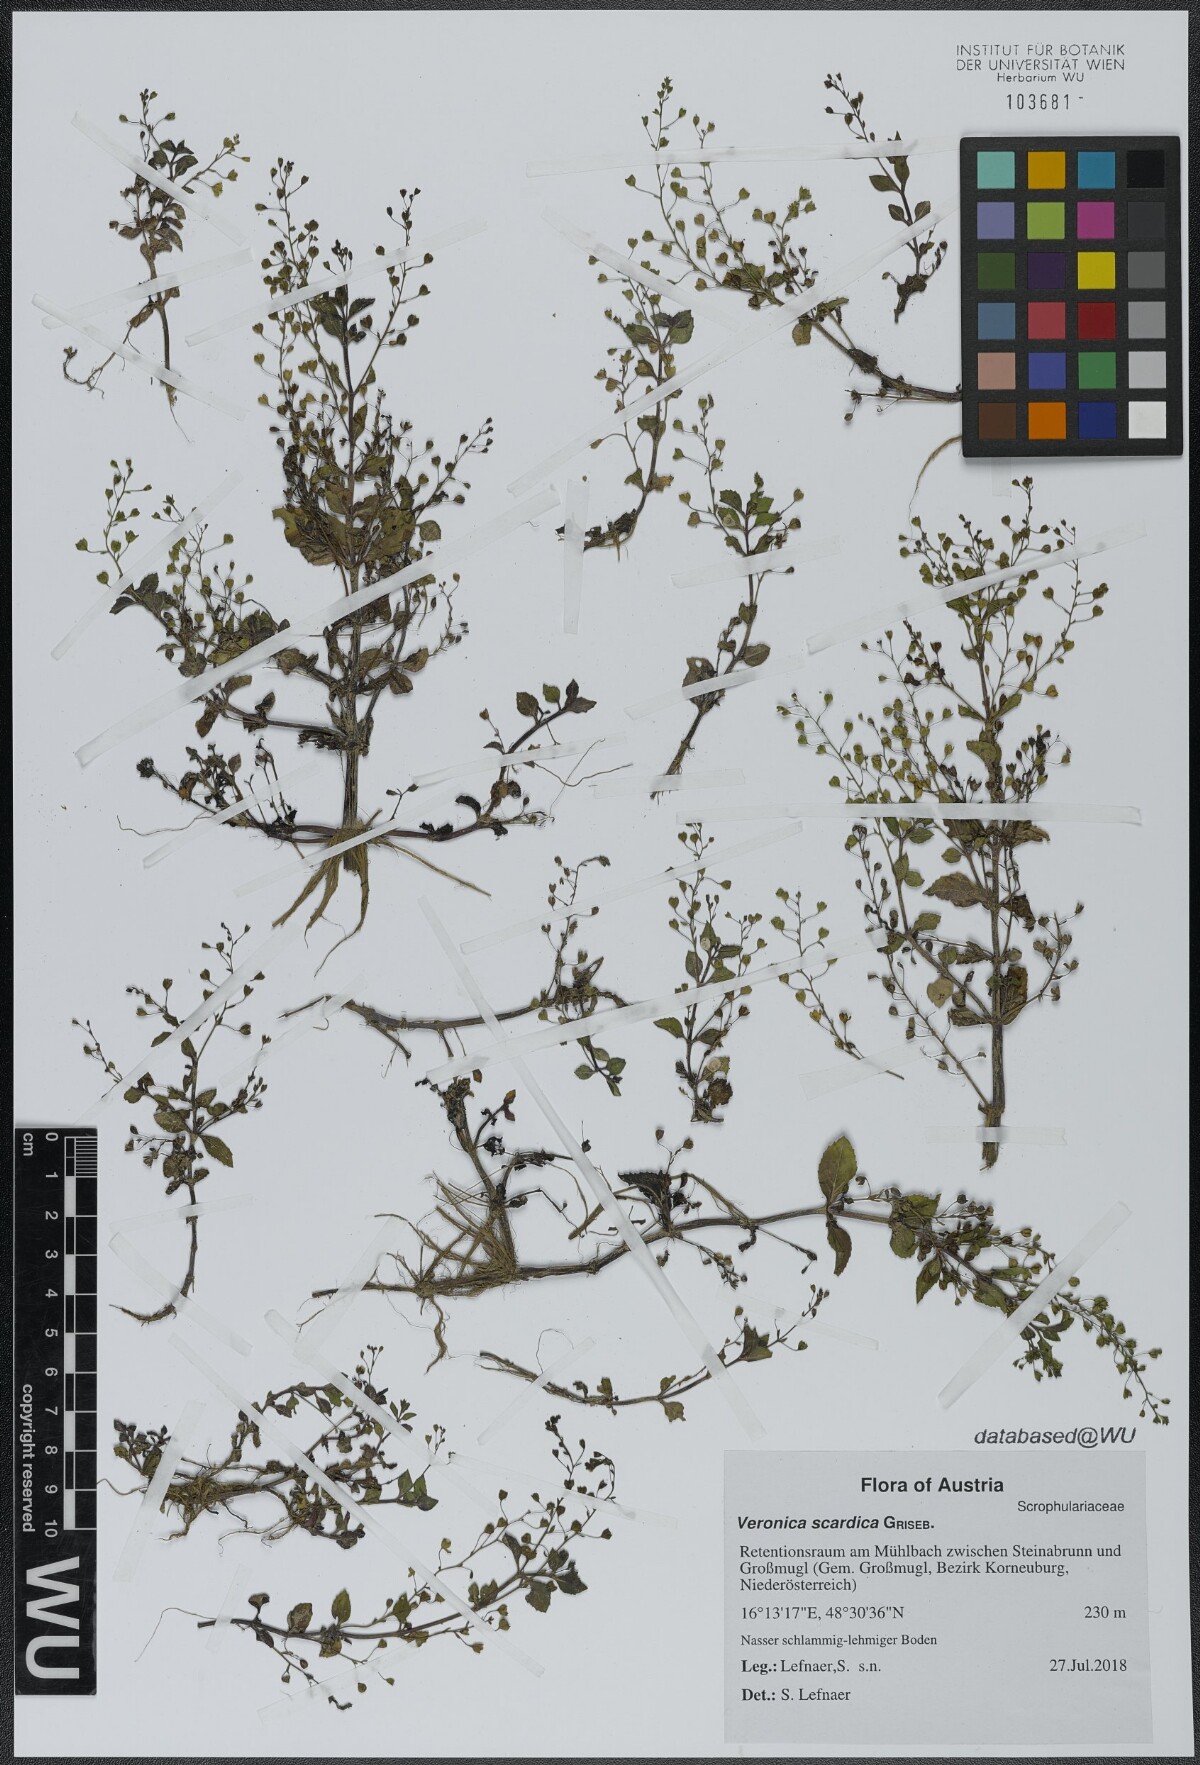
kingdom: Plantae
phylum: Tracheophyta
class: Magnoliopsida
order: Lamiales
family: Plantaginaceae
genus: Veronica
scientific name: Veronica scardica
